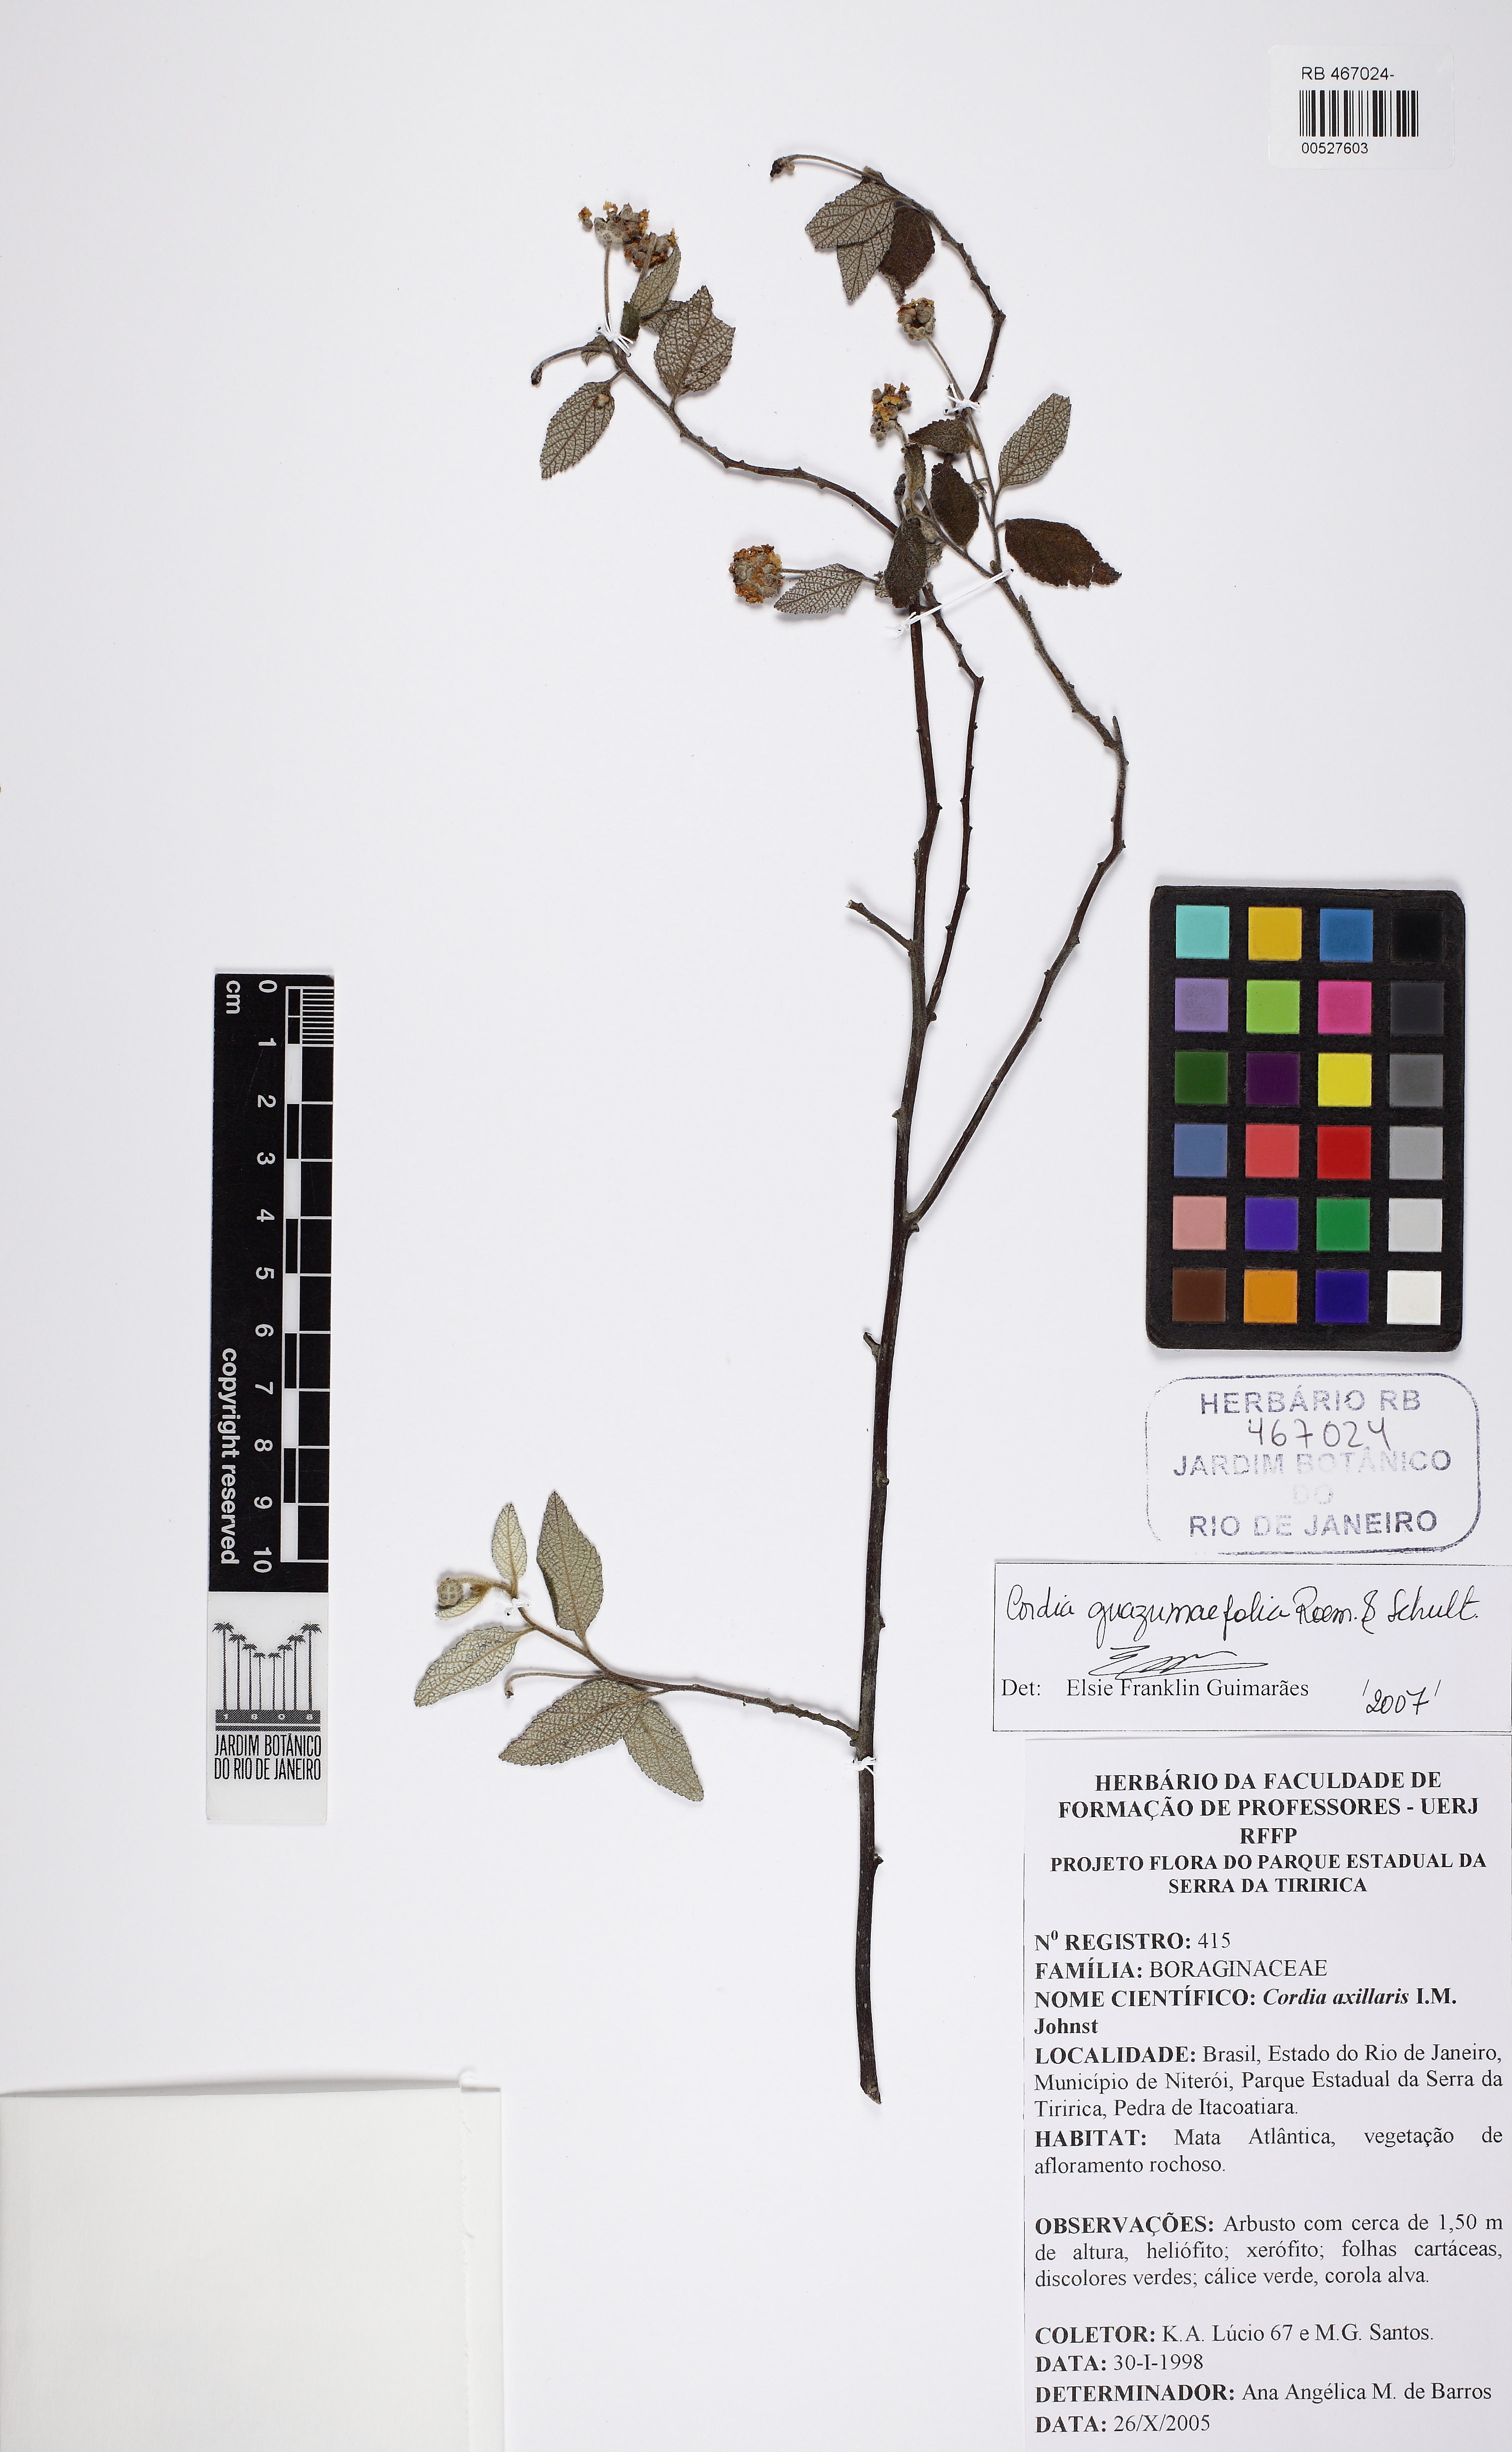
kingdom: Plantae
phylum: Tracheophyta
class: Magnoliopsida
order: Boraginales
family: Cordiaceae
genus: Varronia
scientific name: Varronia polycephala
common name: Black-sage
